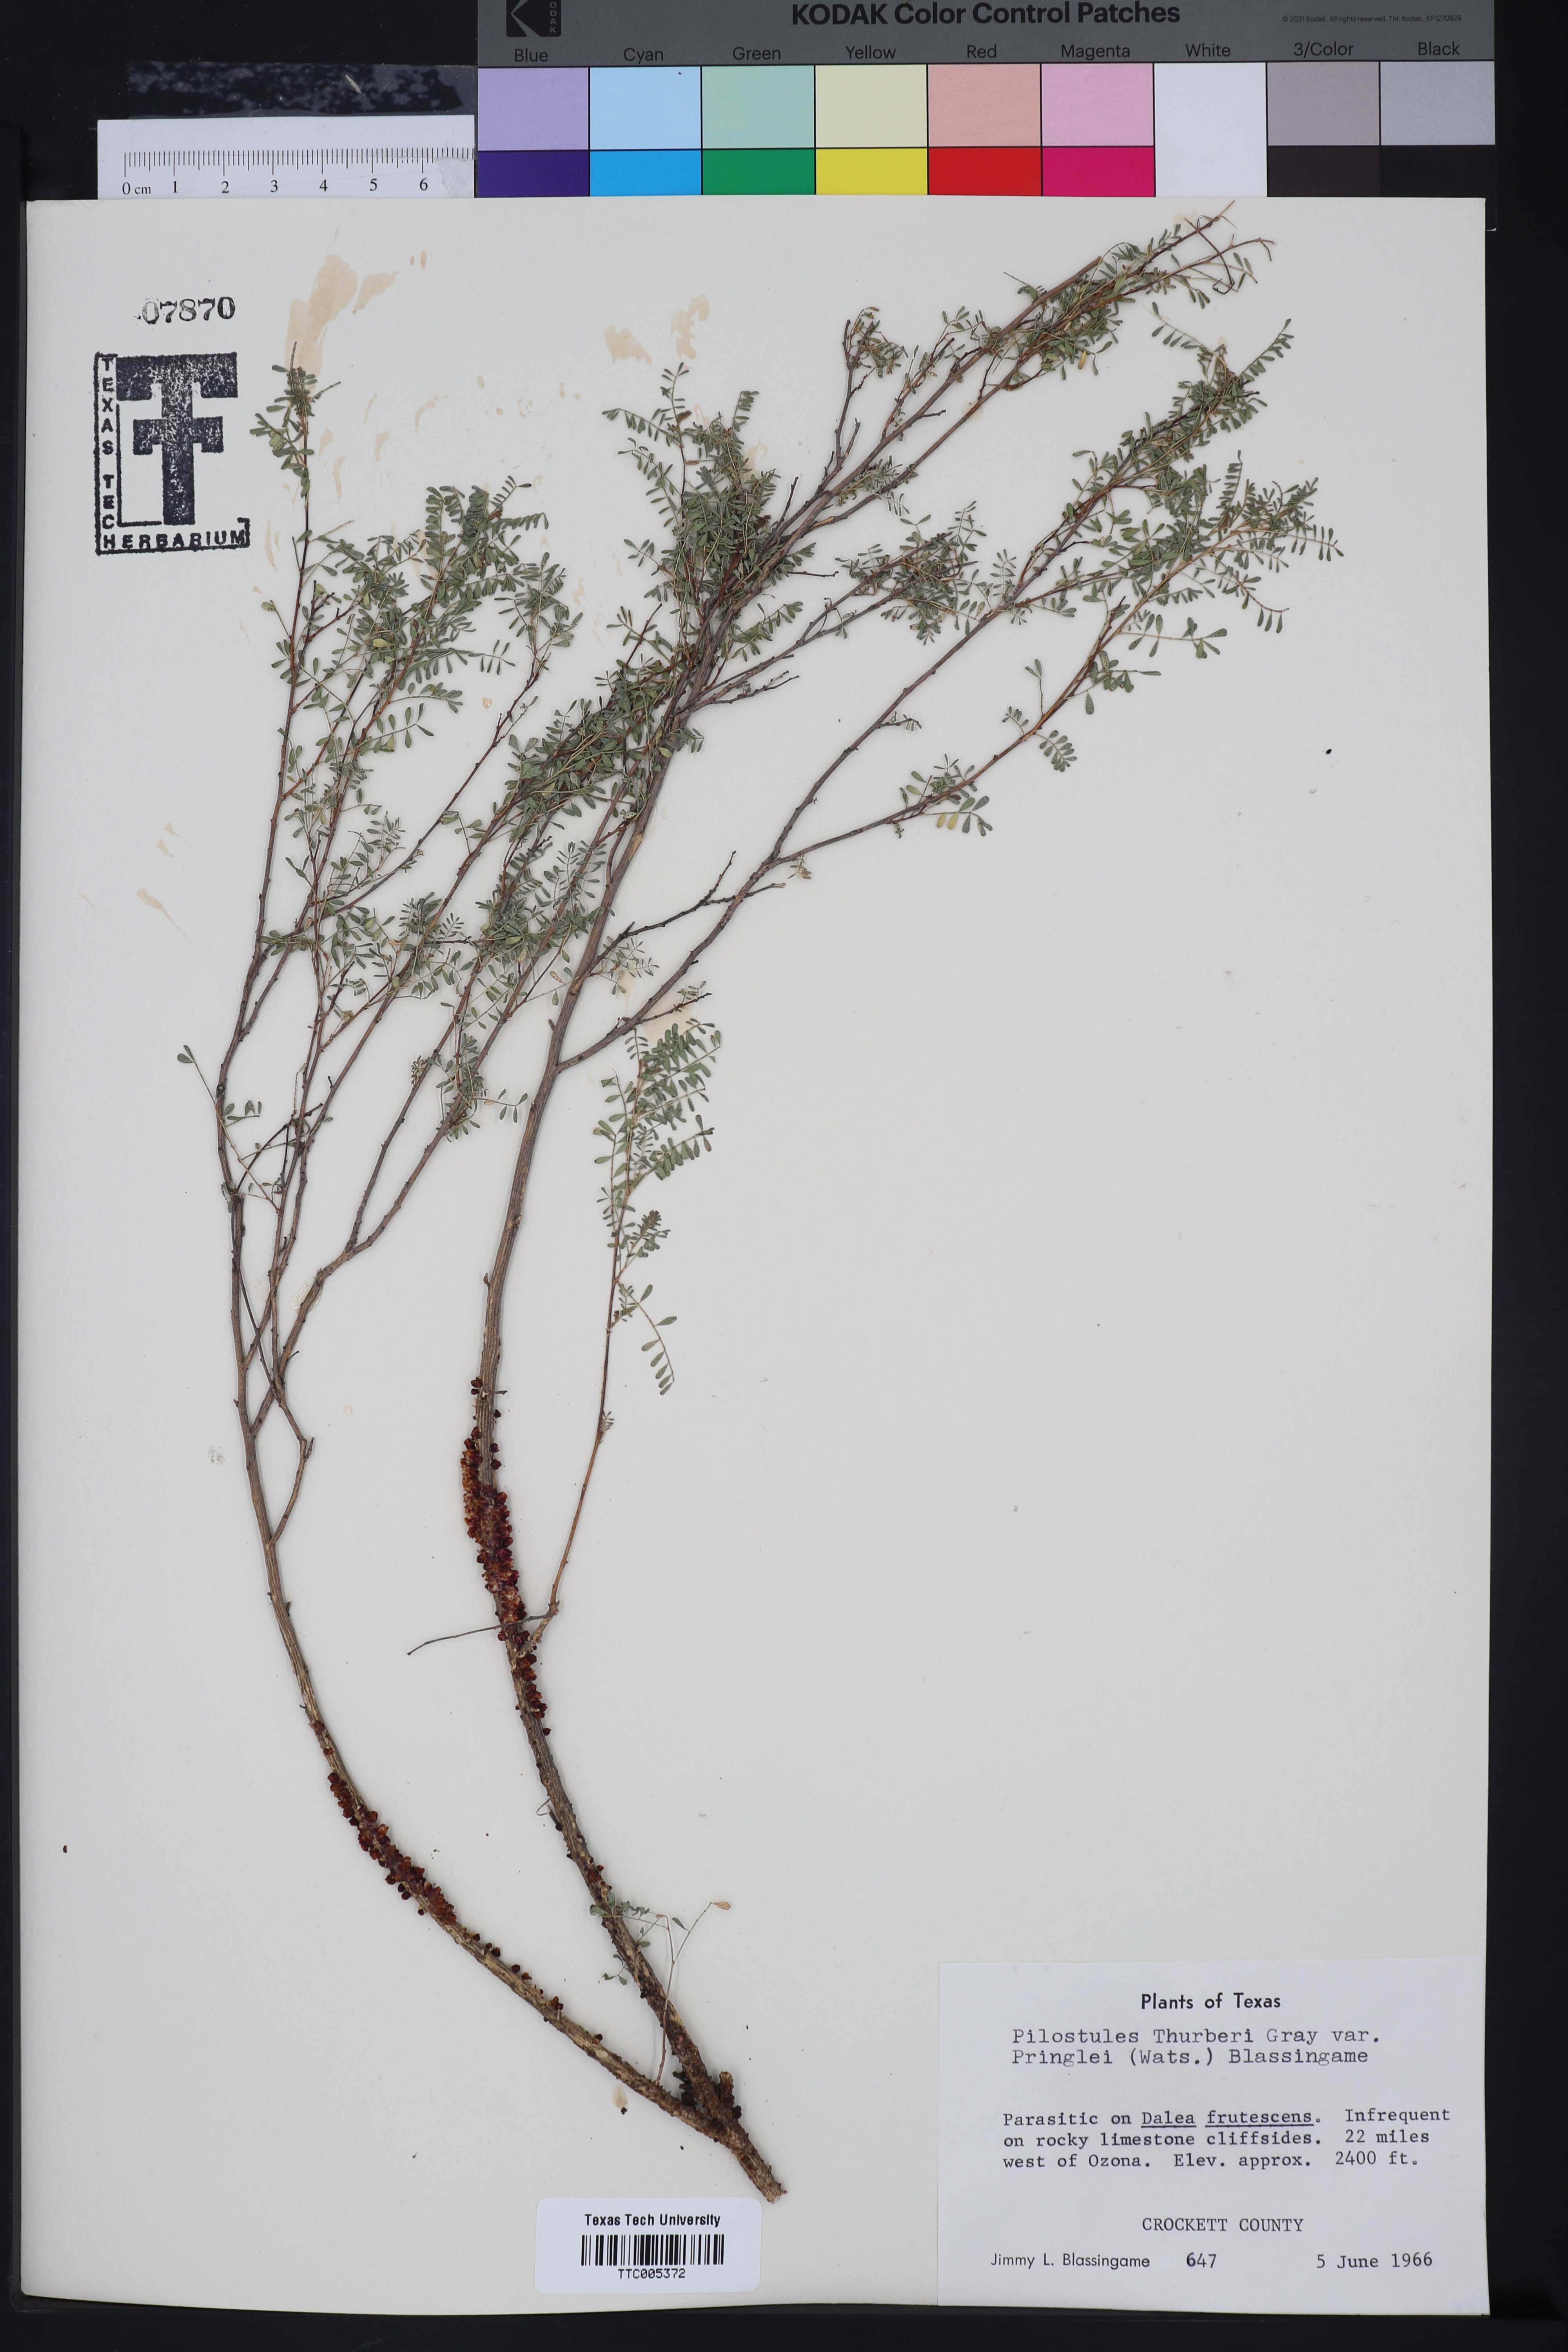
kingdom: Plantae
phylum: Tracheophyta
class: Magnoliopsida
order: Cucurbitales
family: Apodanthaceae
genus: Pilostyles
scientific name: Pilostyles
